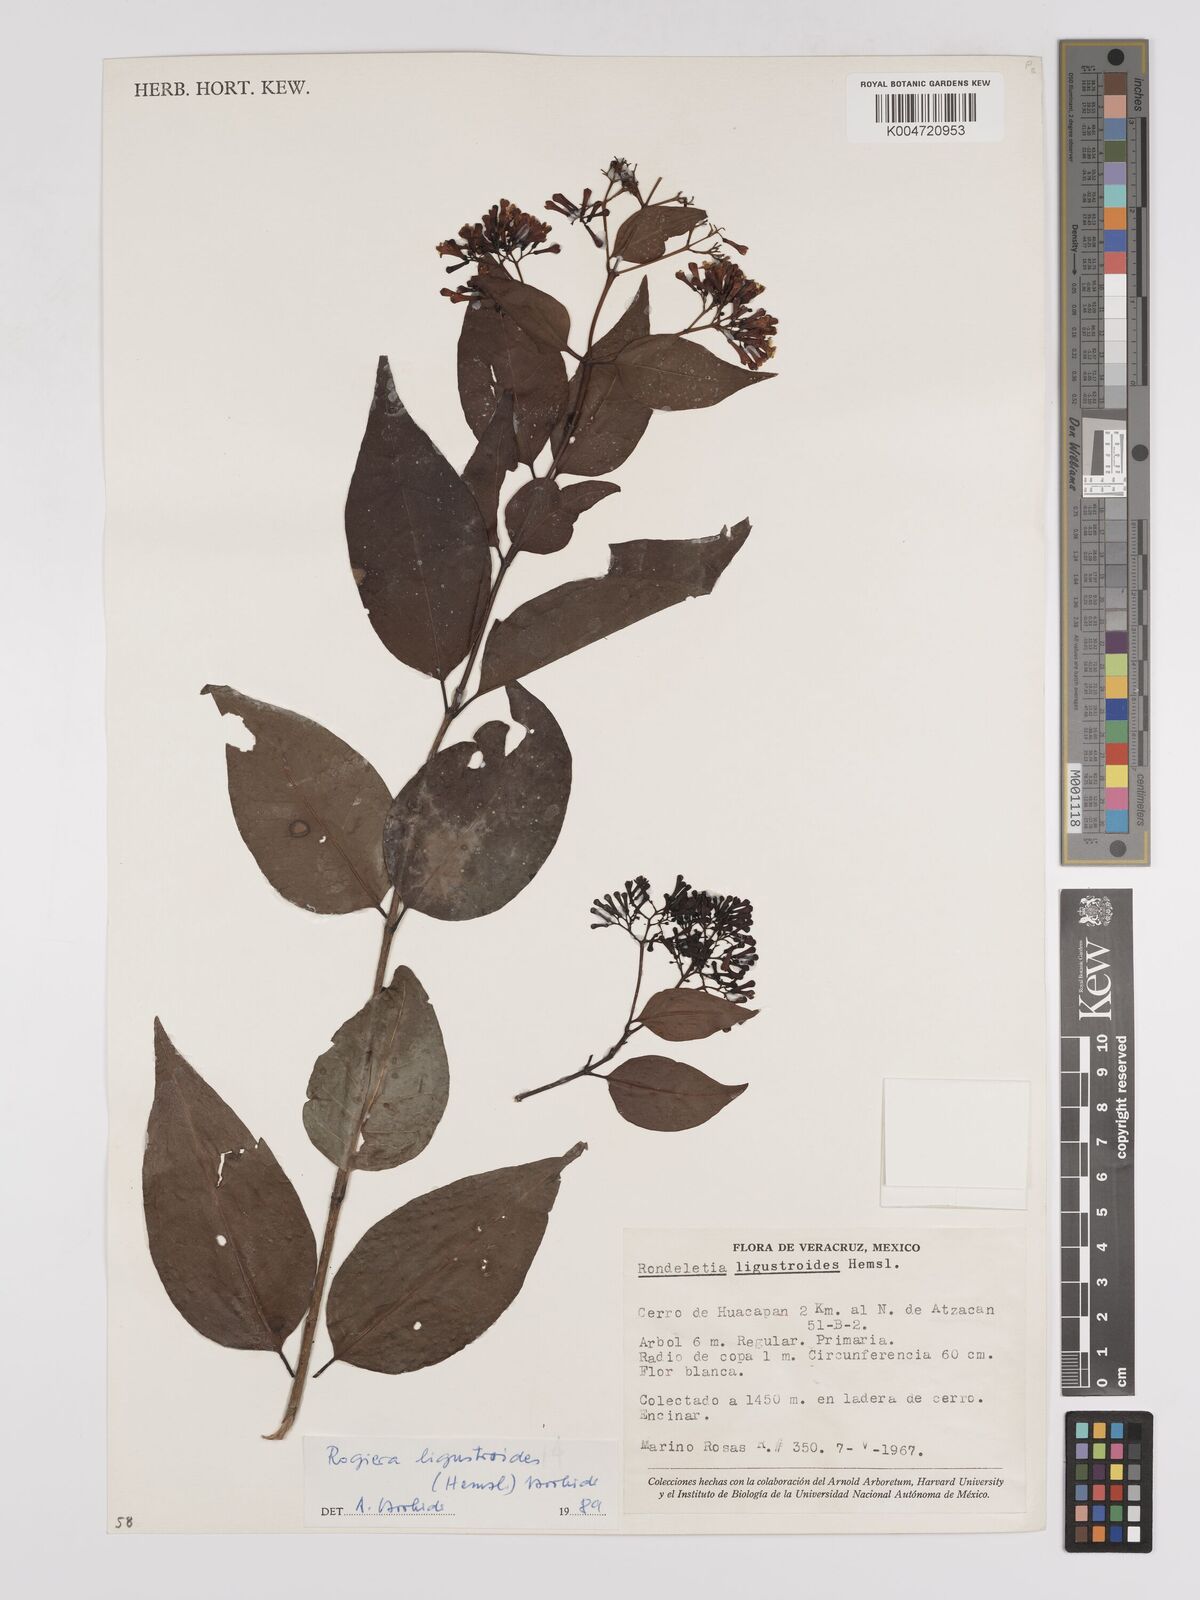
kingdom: Plantae
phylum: Tracheophyta
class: Magnoliopsida
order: Gentianales
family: Rubiaceae
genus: Rogiera
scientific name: Rogiera ligustroides
